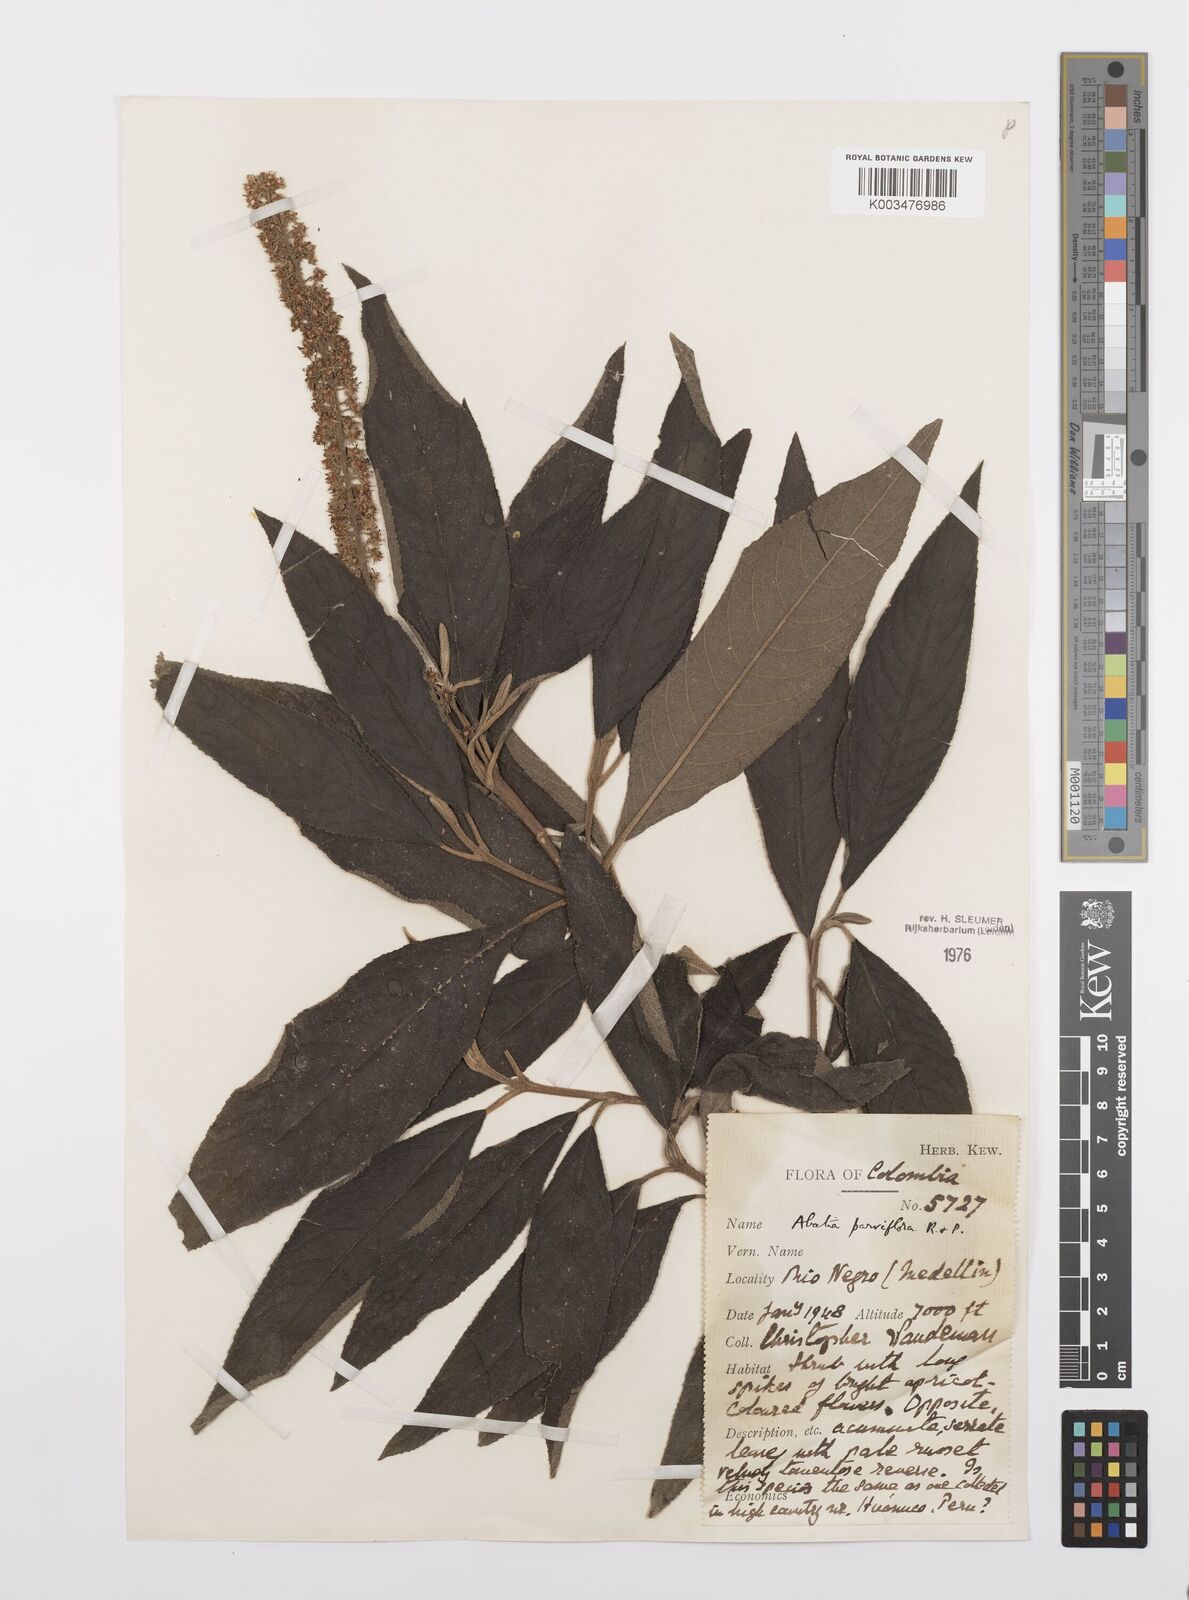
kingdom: Plantae
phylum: Tracheophyta
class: Magnoliopsida
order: Malpighiales
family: Salicaceae
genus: Abatia
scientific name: Abatia parviflora
